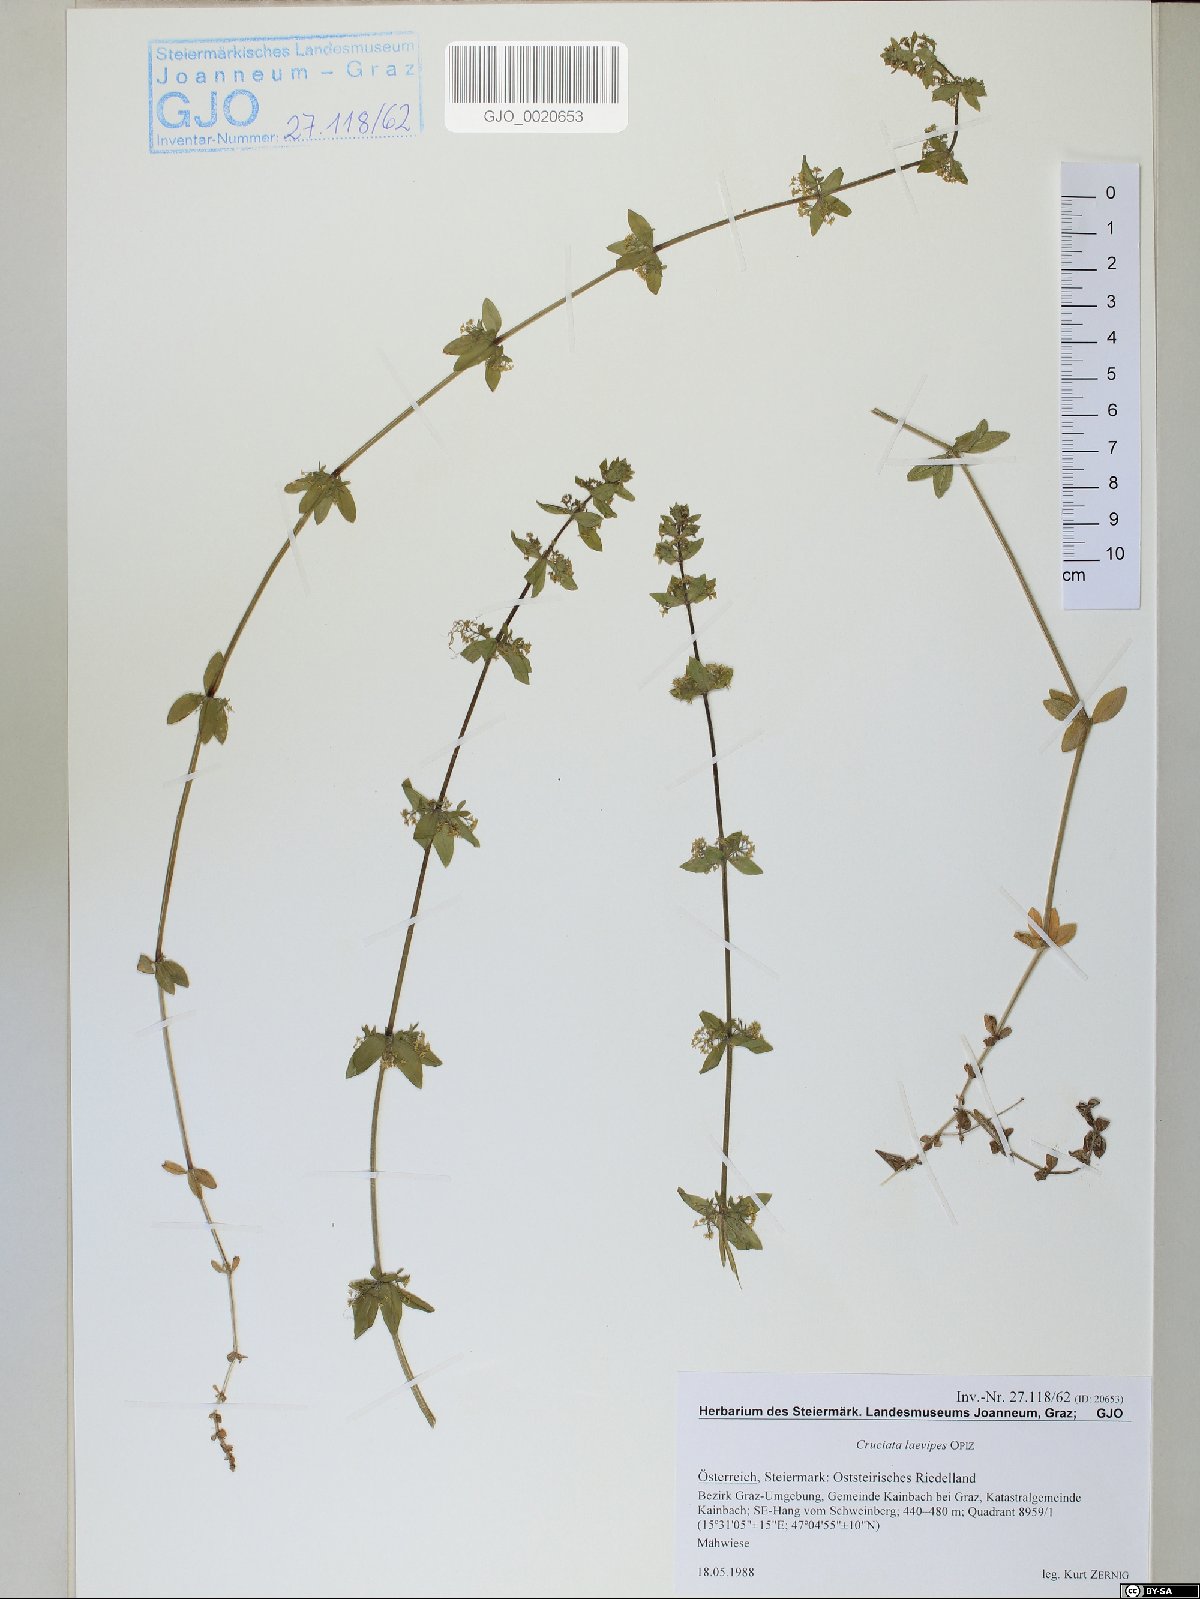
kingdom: Plantae
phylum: Tracheophyta
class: Magnoliopsida
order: Gentianales
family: Rubiaceae
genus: Cruciata
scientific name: Cruciata laevipes
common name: Crosswort
